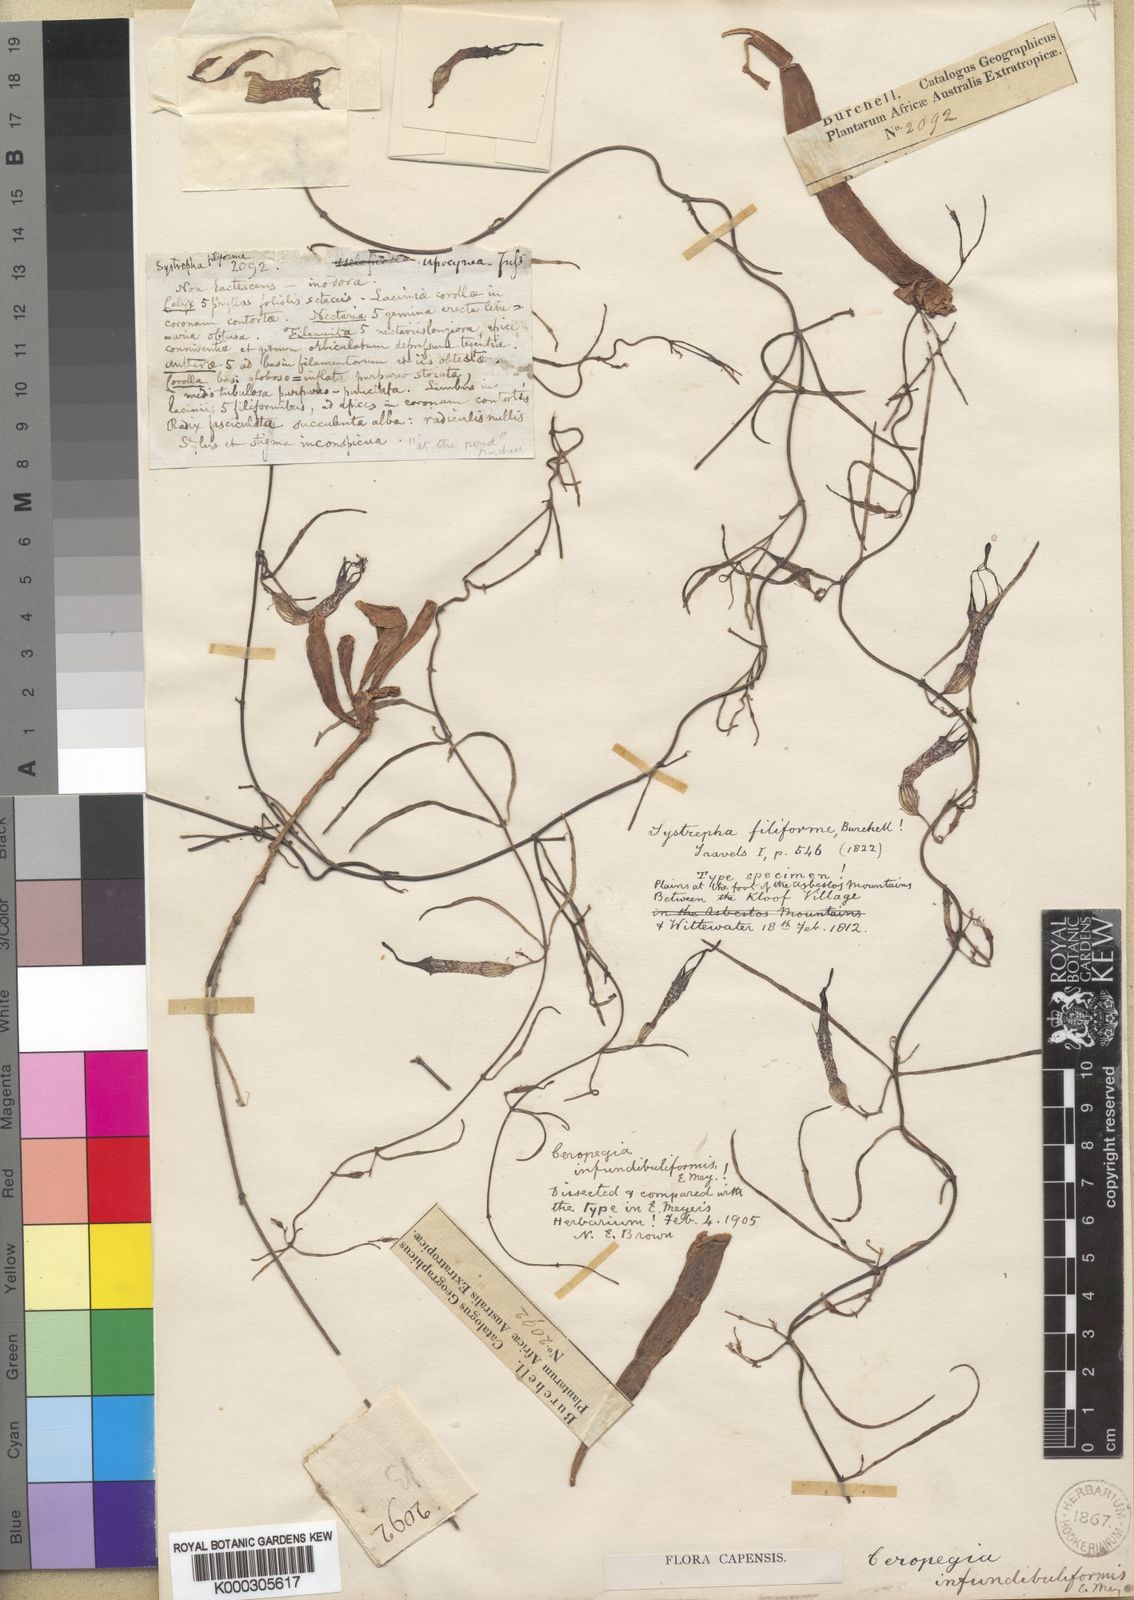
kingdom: Plantae
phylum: Tracheophyta
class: Magnoliopsida
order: Gentianales
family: Apocynaceae
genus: Ceropegia
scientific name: Ceropegia filiformis
